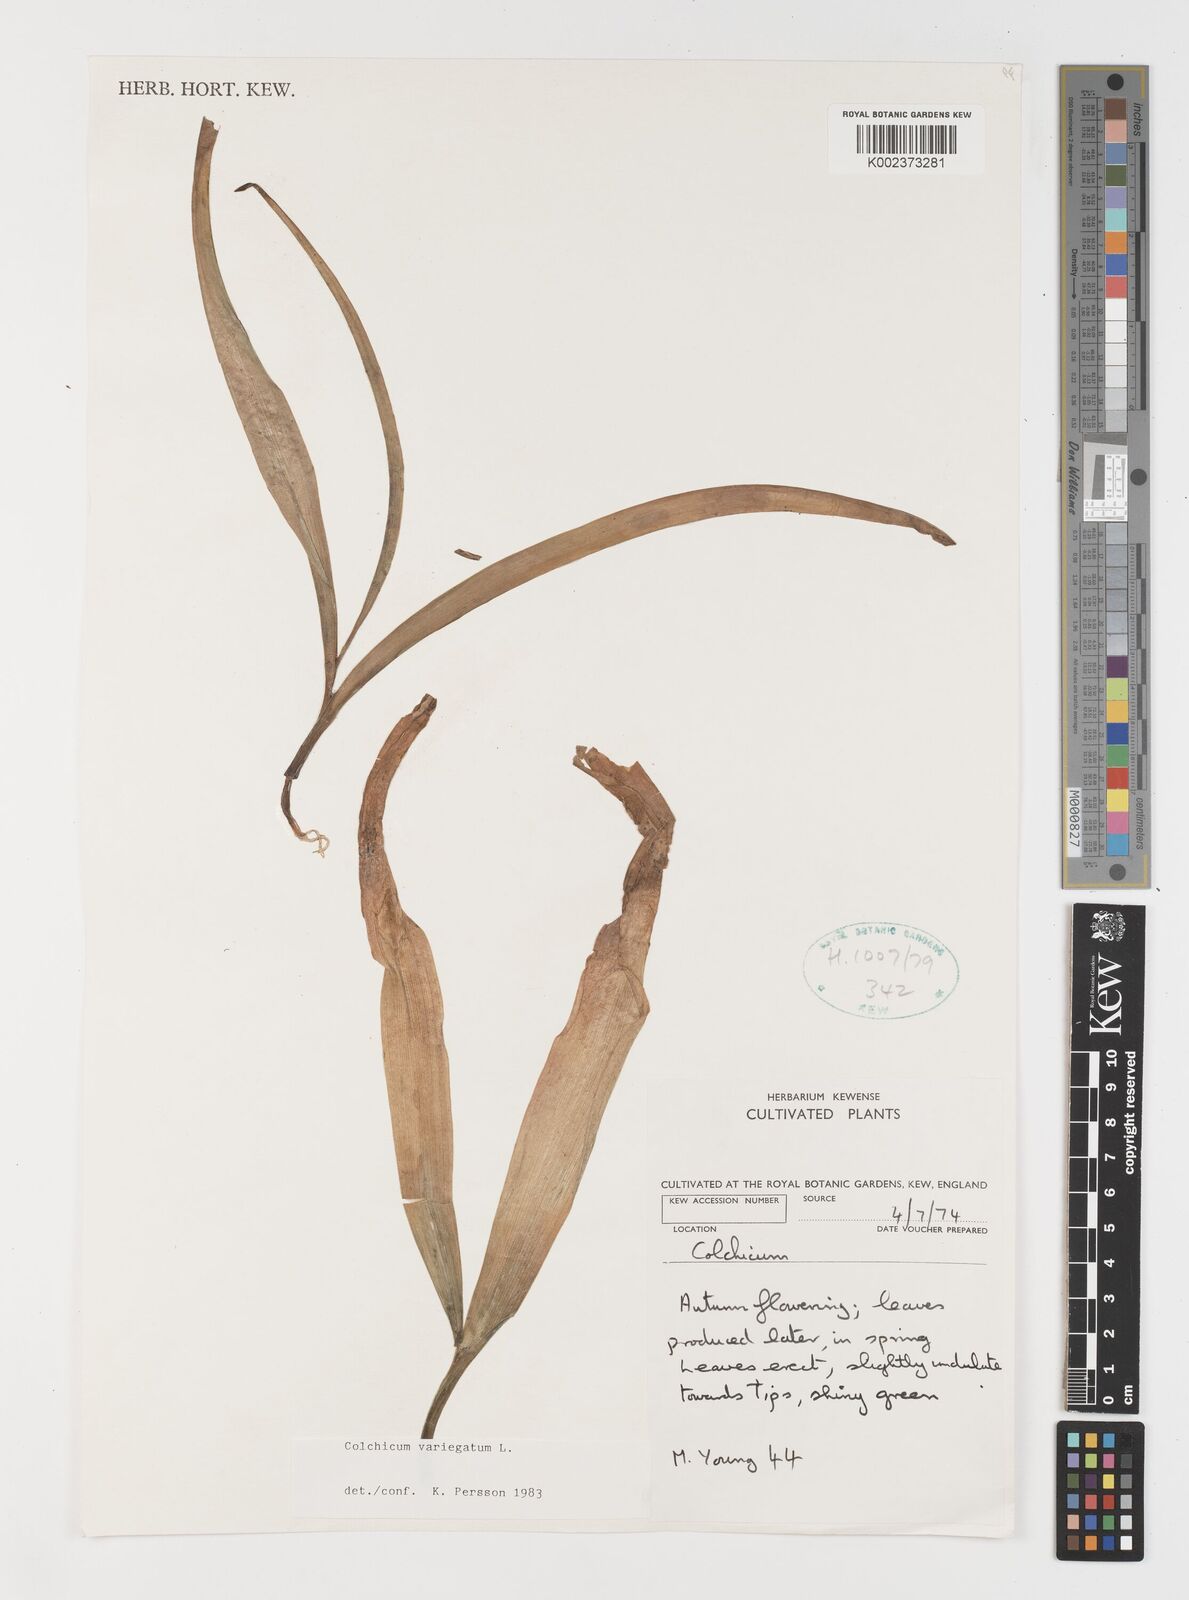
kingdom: Plantae
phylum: Tracheophyta
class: Liliopsida
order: Liliales
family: Colchicaceae
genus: Colchicum
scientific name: Colchicum variegatum
